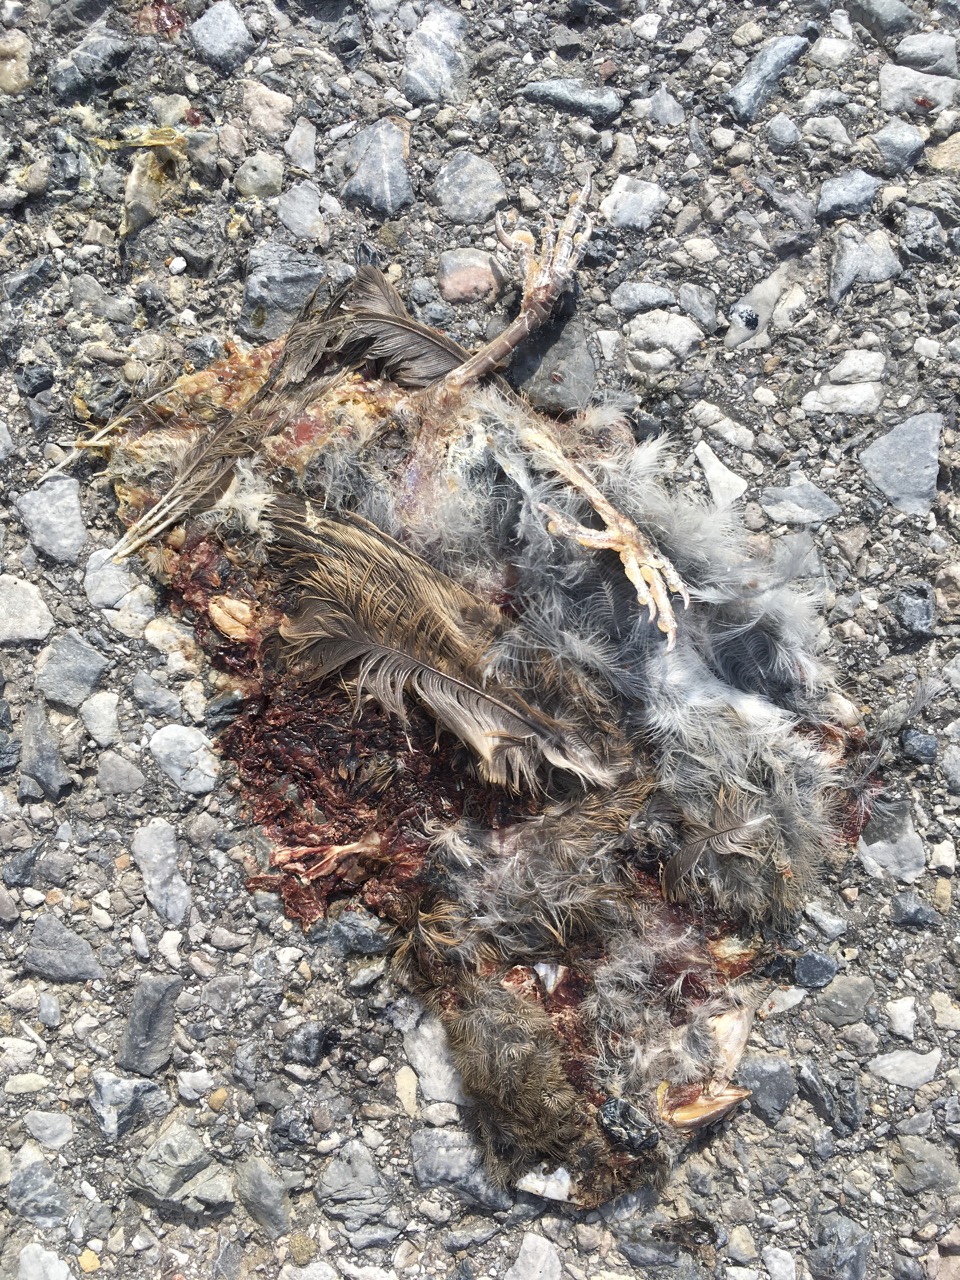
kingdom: Animalia
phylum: Chordata
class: Aves
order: Passeriformes
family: Passeridae
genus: Passer
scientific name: Passer
